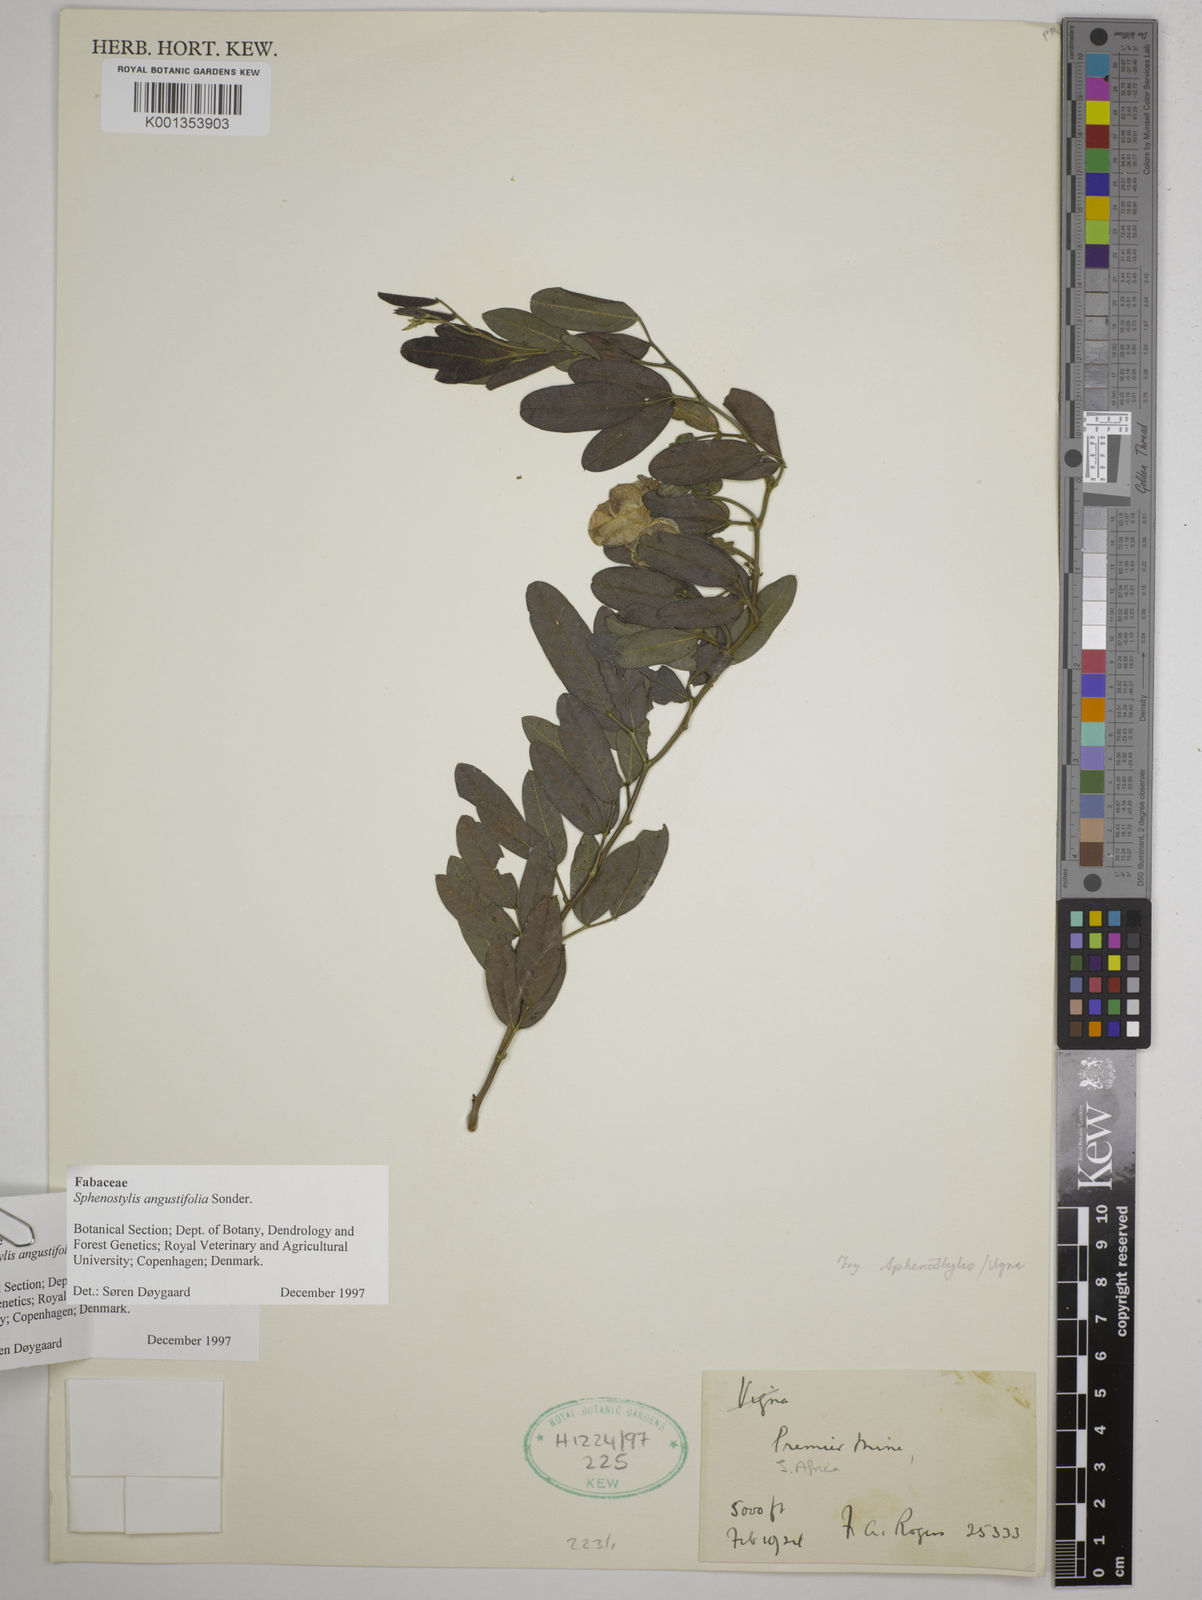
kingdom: Plantae
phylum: Tracheophyta
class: Magnoliopsida
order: Fabales
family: Fabaceae
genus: Sphenostylis
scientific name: Sphenostylis angustifolia
